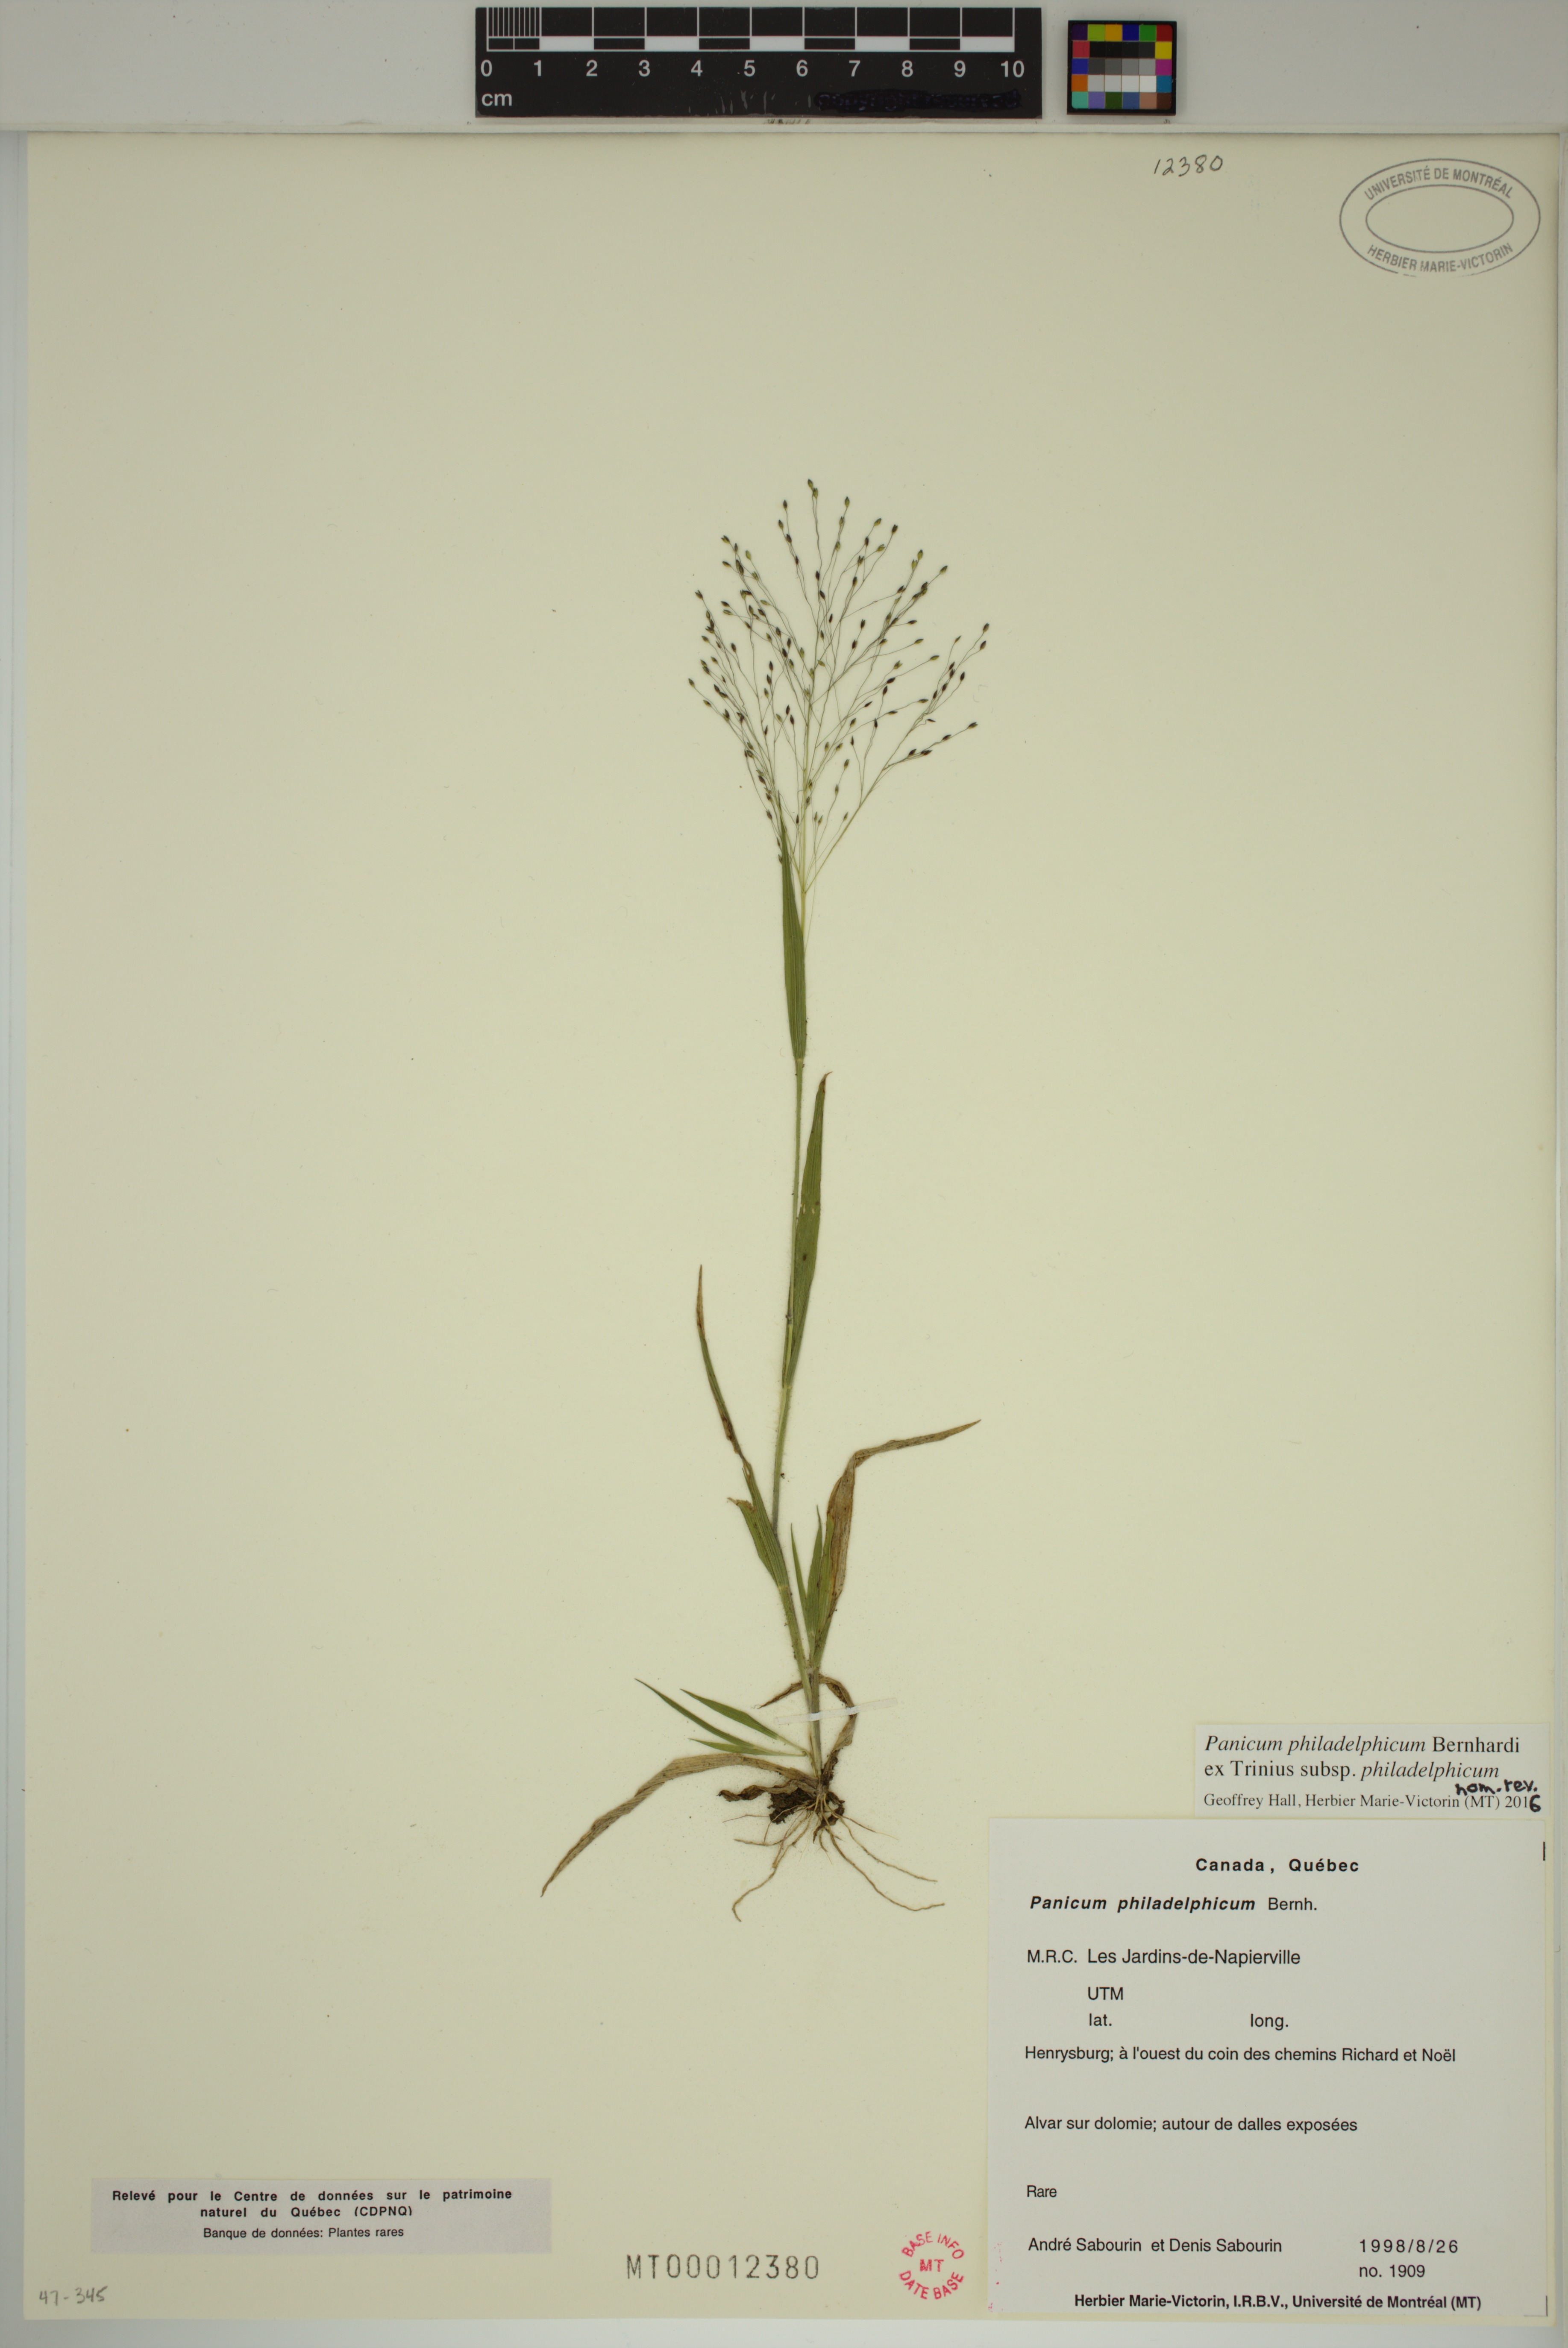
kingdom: Plantae
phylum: Tracheophyta
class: Liliopsida
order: Poales
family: Poaceae
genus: Panicum
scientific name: Panicum philadelphicum
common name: Philadelphia witchgrass
